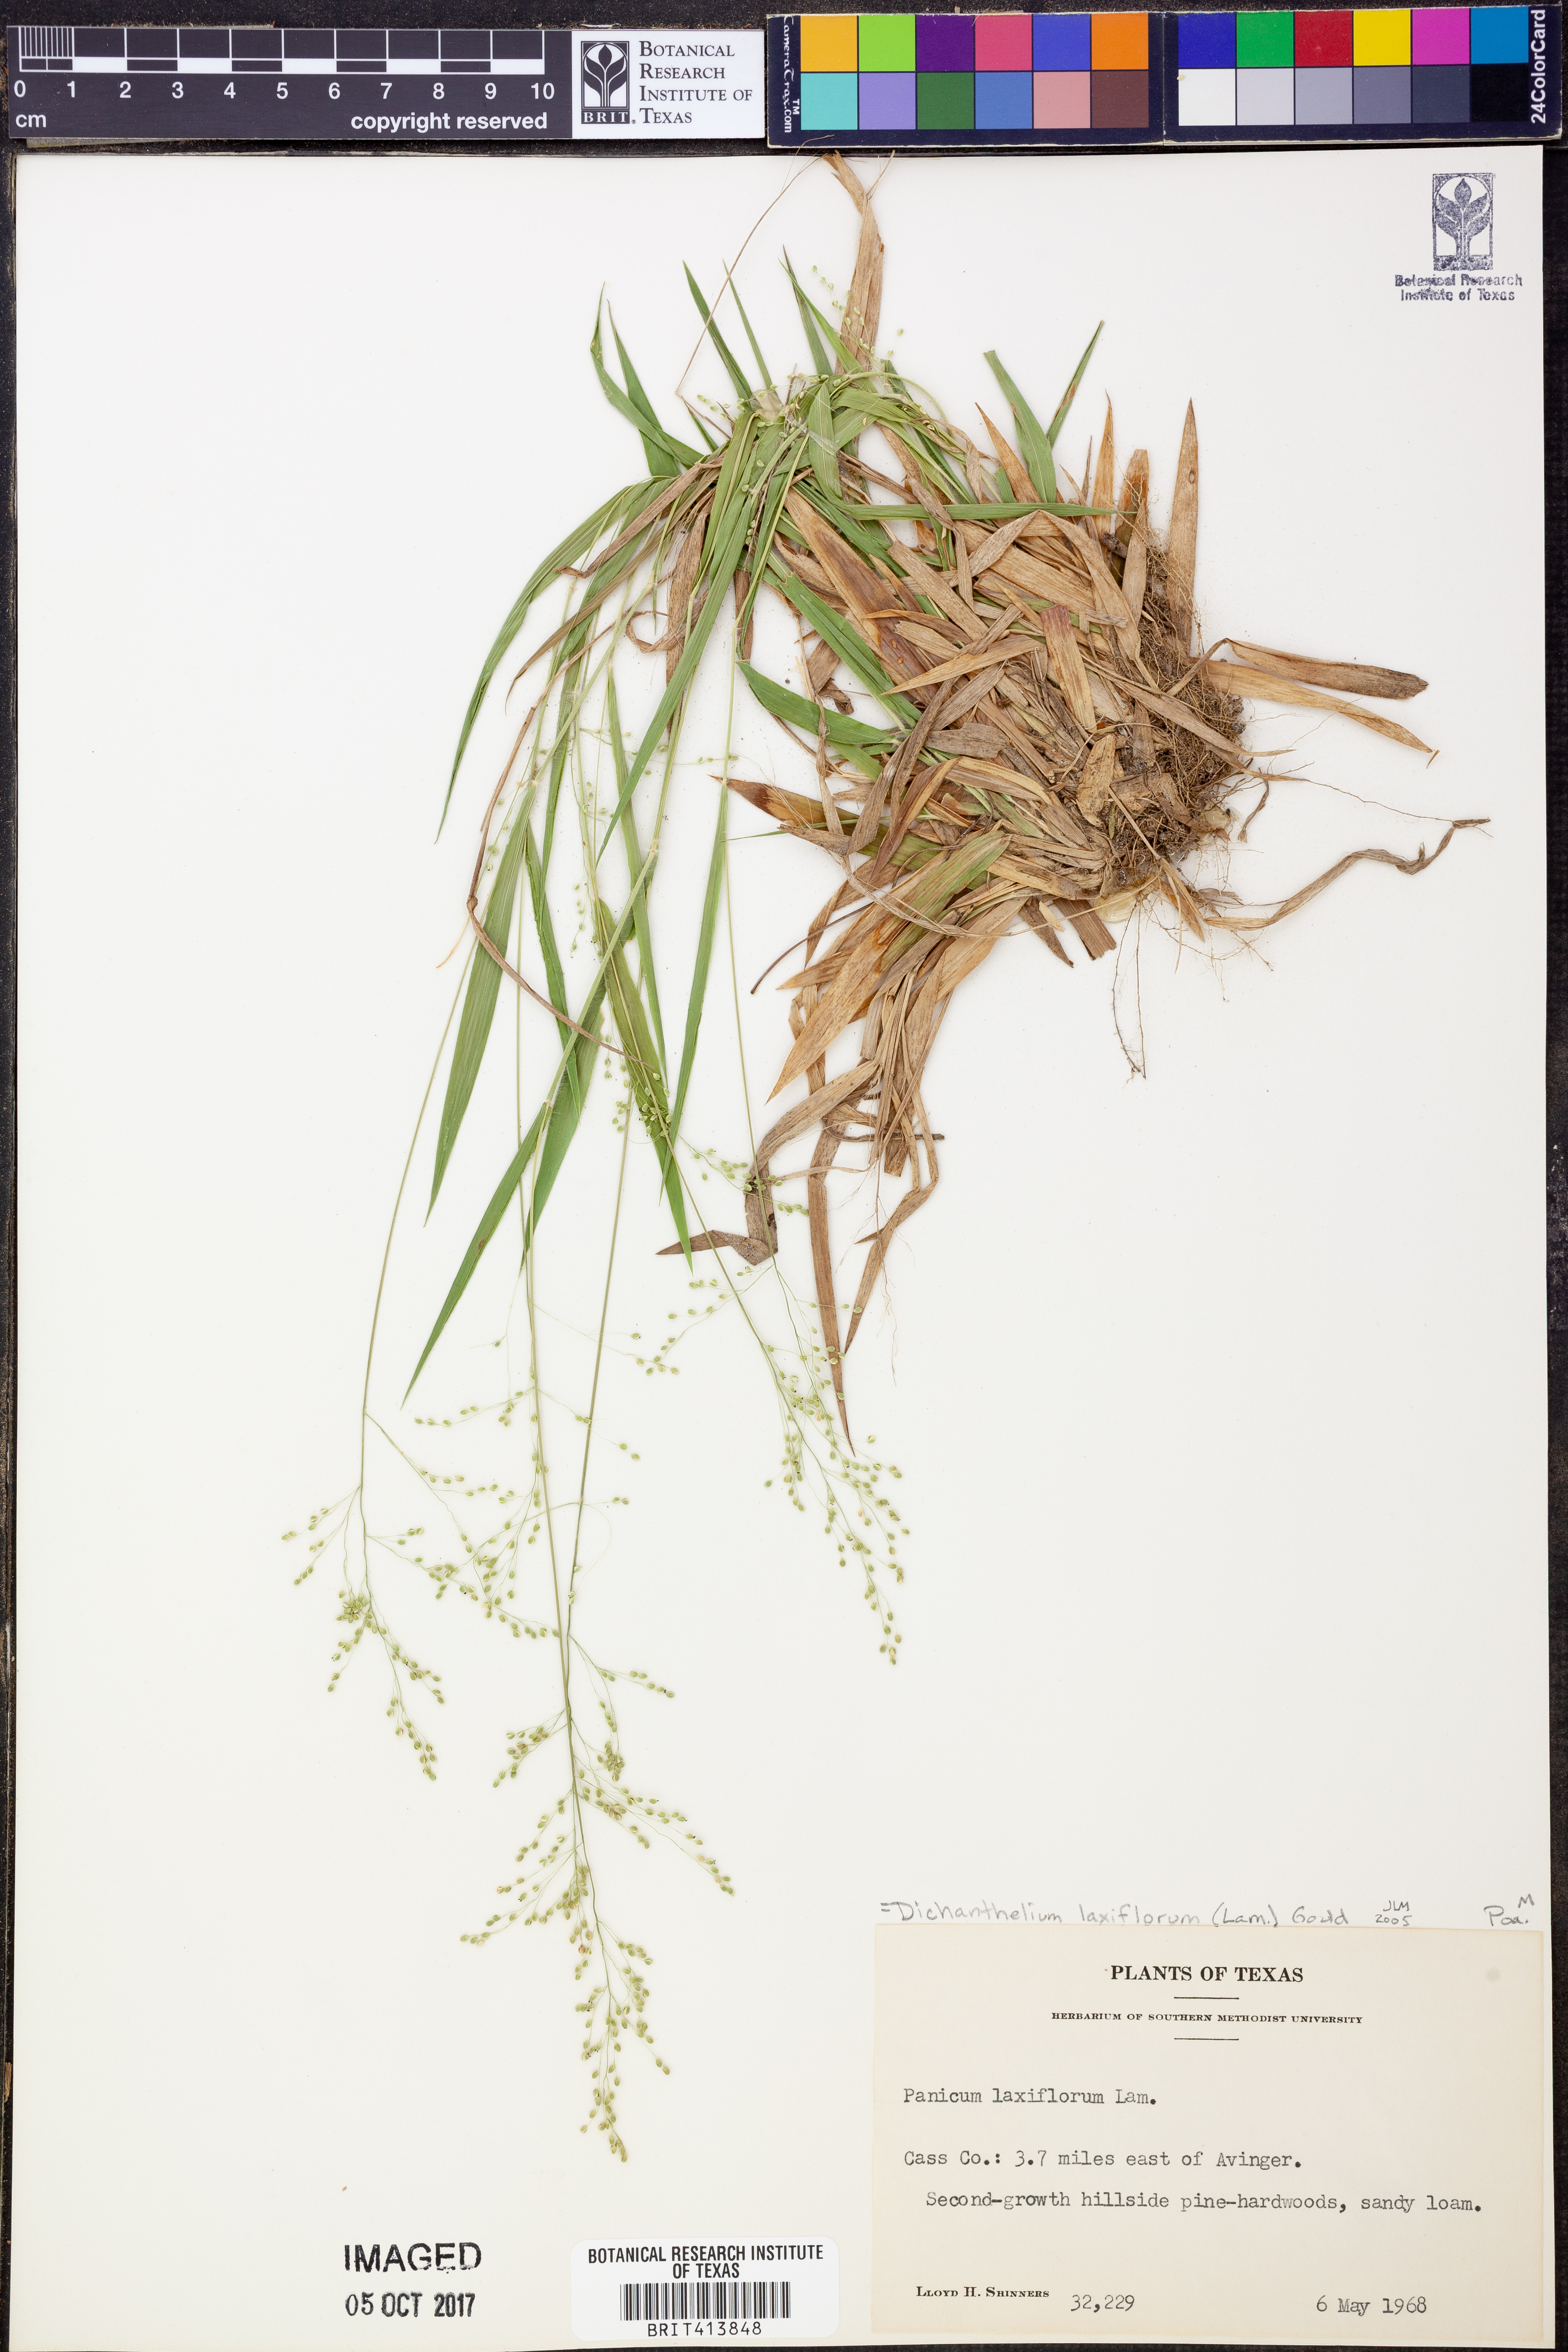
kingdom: Plantae
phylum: Tracheophyta
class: Liliopsida
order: Poales
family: Poaceae
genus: Dichanthelium
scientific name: Dichanthelium laxiflorum
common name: Soft-tuft panic grass
